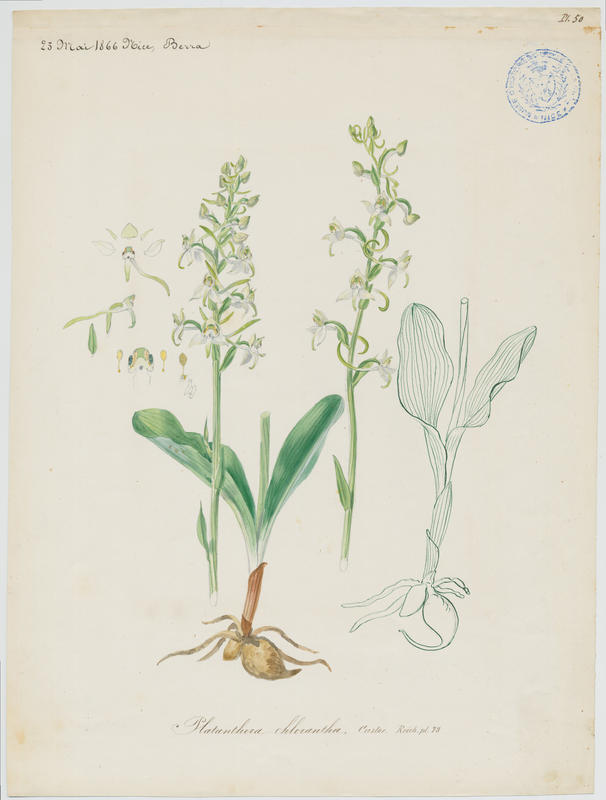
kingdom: Plantae
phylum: Tracheophyta
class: Liliopsida
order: Asparagales
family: Orchidaceae
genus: Platanthera
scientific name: Platanthera chlorantha
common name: Greater butterfly-orchid
